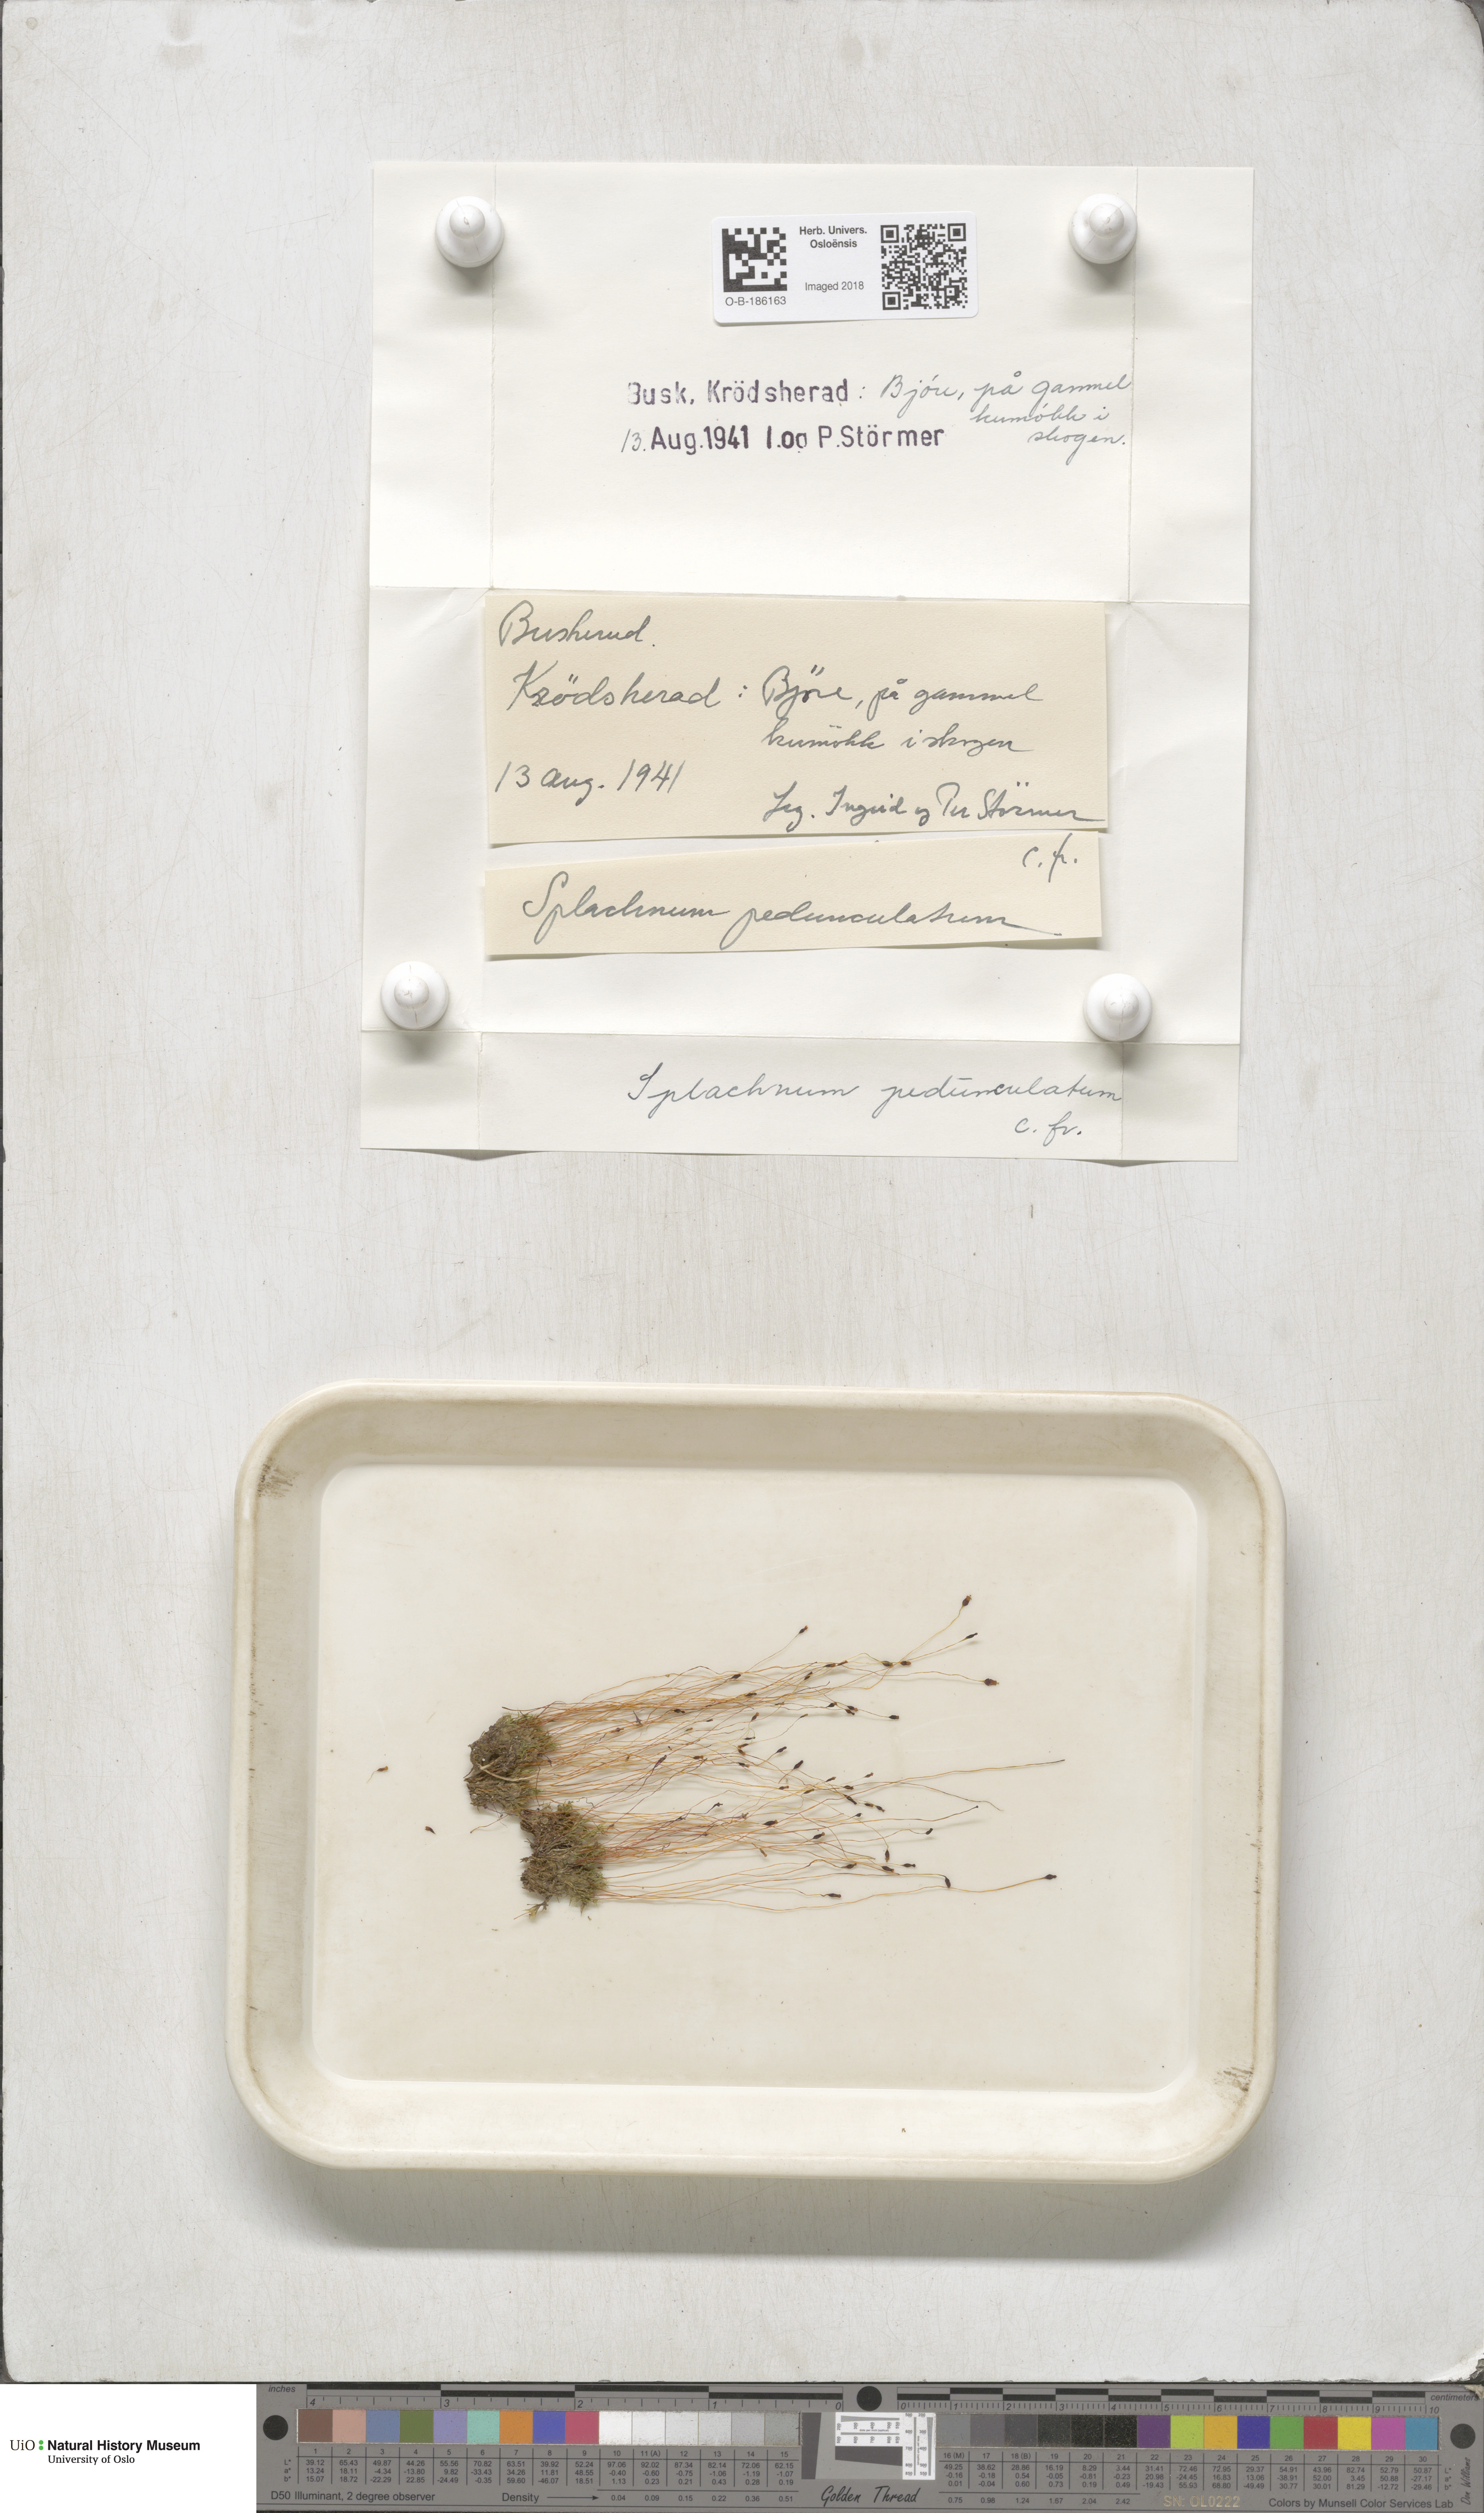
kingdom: Plantae
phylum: Bryophyta
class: Bryopsida
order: Splachnales
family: Splachnaceae
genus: Splachnum
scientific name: Splachnum sphaericum
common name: Round-fruited dung moss
